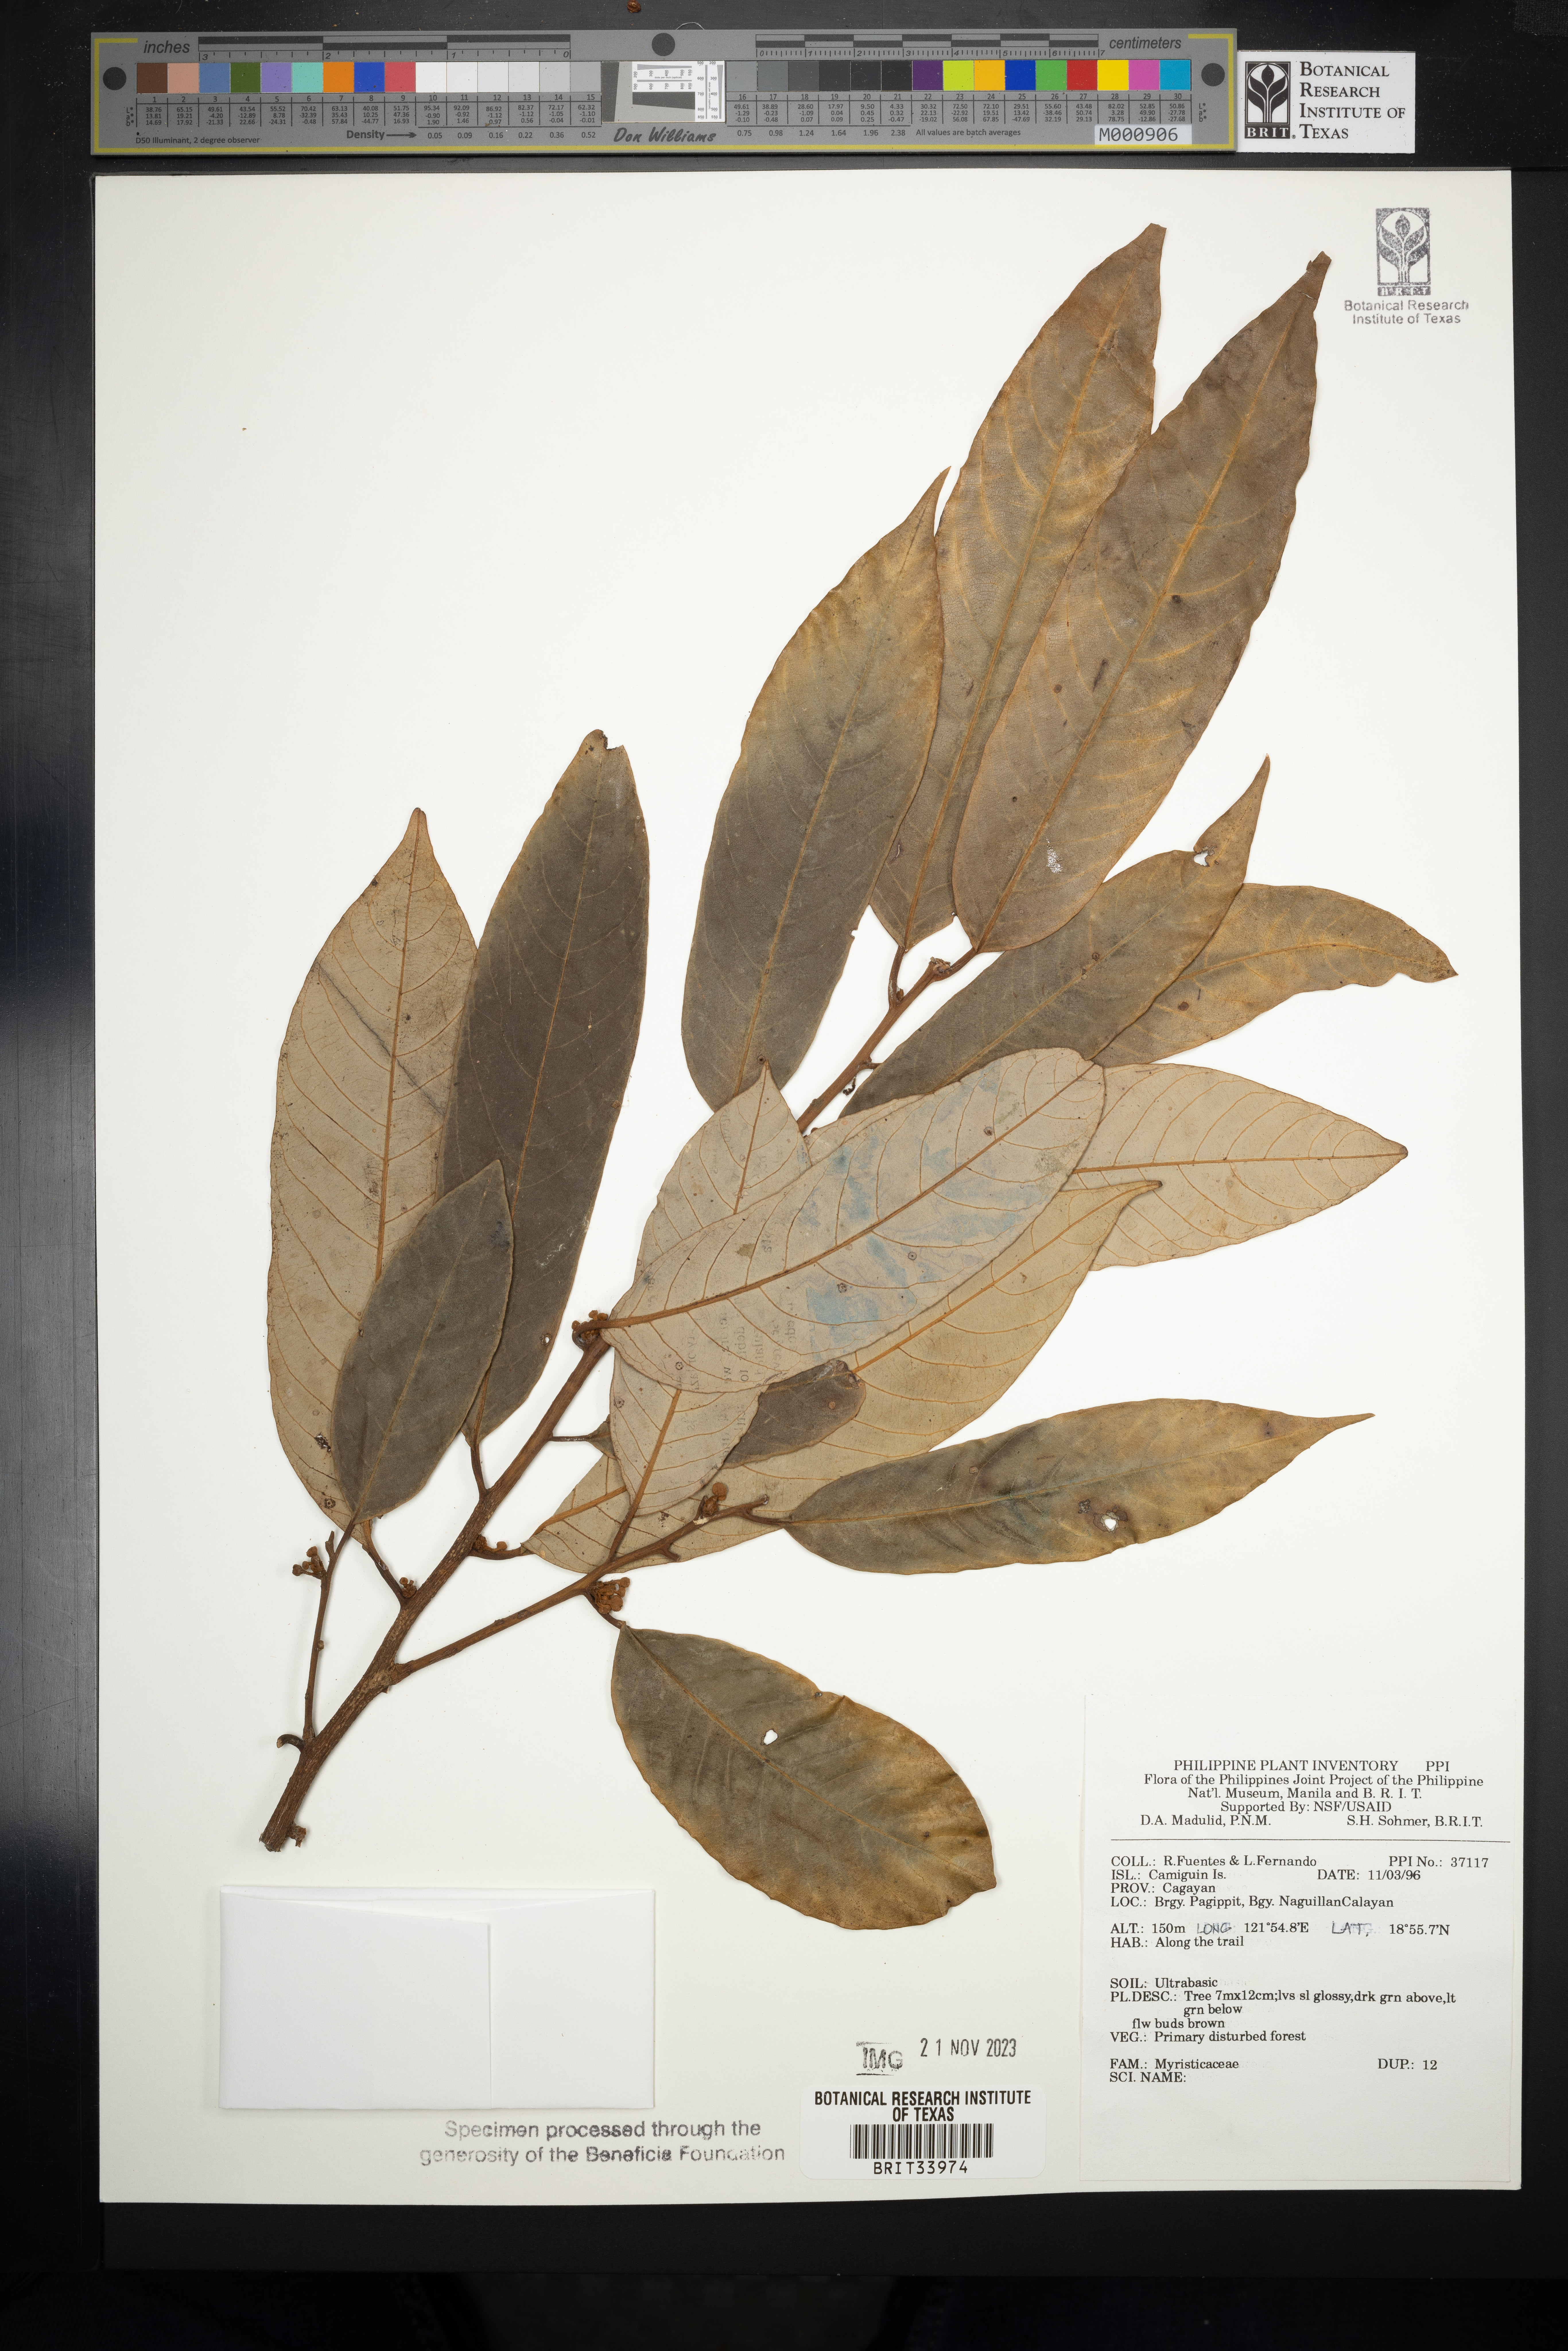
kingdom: Plantae
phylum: Tracheophyta
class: Magnoliopsida
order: Magnoliales
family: Myristicaceae
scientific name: Myristicaceae
